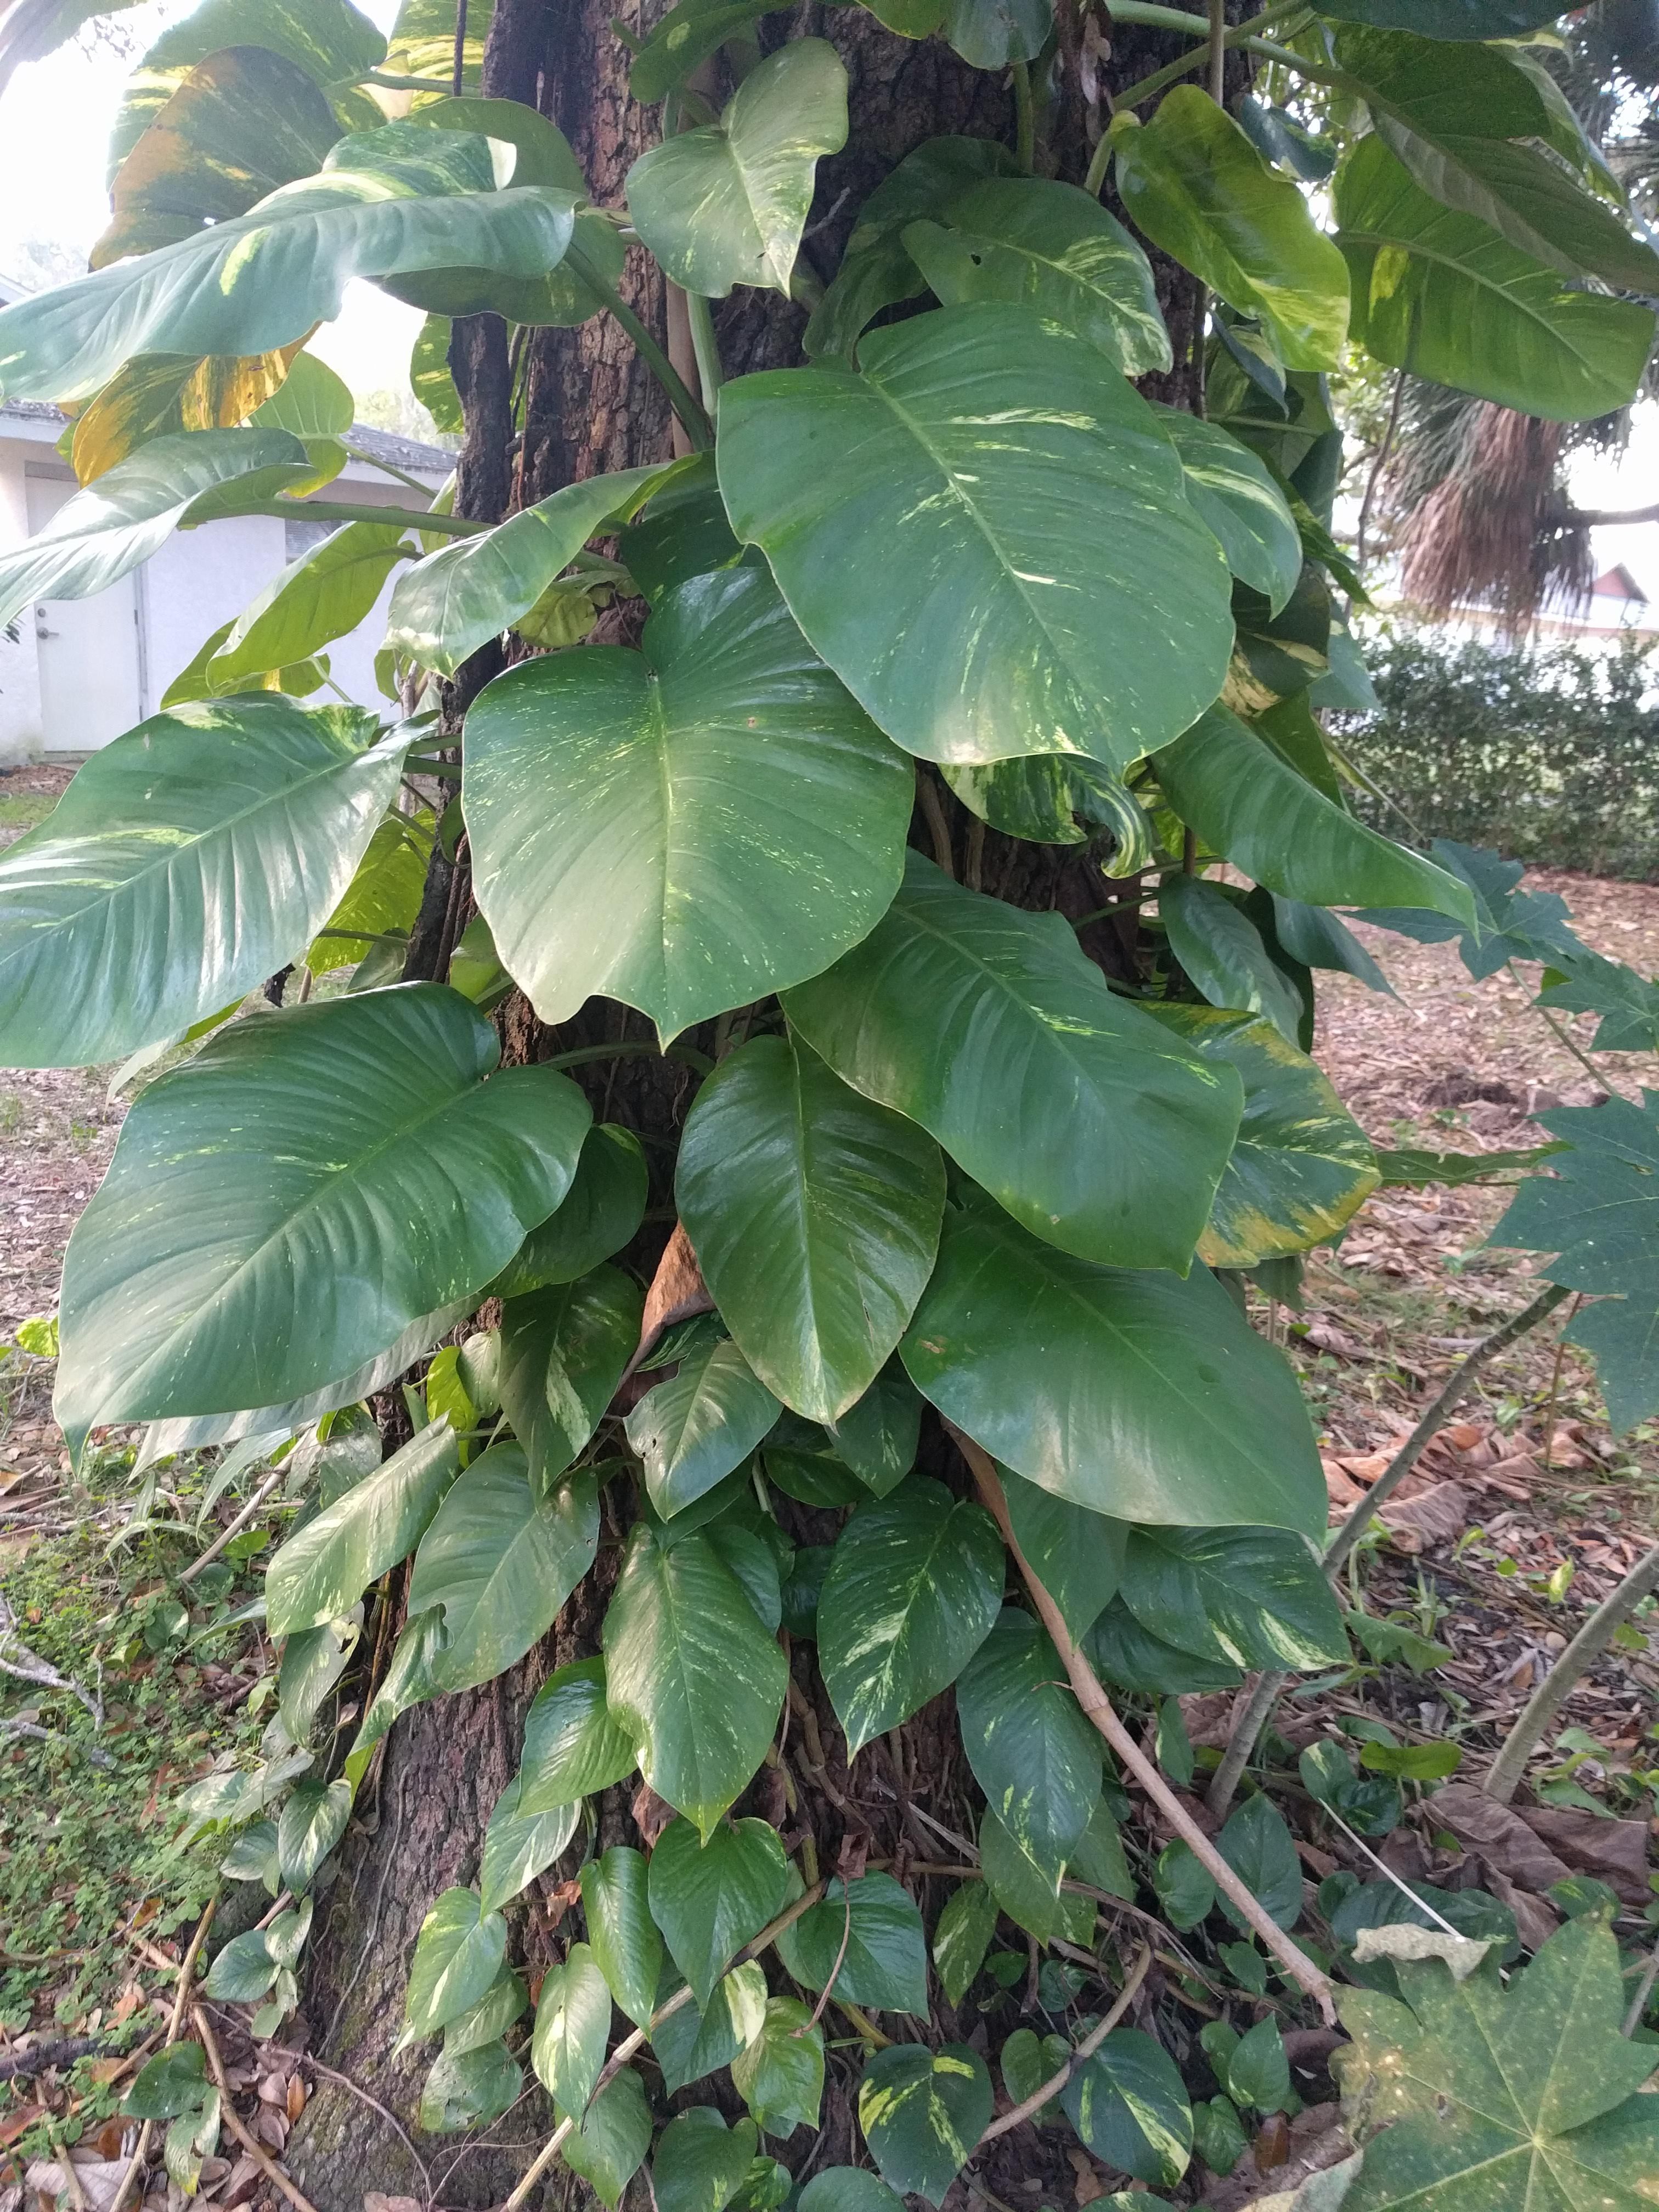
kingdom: Plantae
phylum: Tracheophyta
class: Liliopsida
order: Alismatales
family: Araceae
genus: Epipremnum
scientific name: Epipremnum aureum
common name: Golden hunter's-robe
